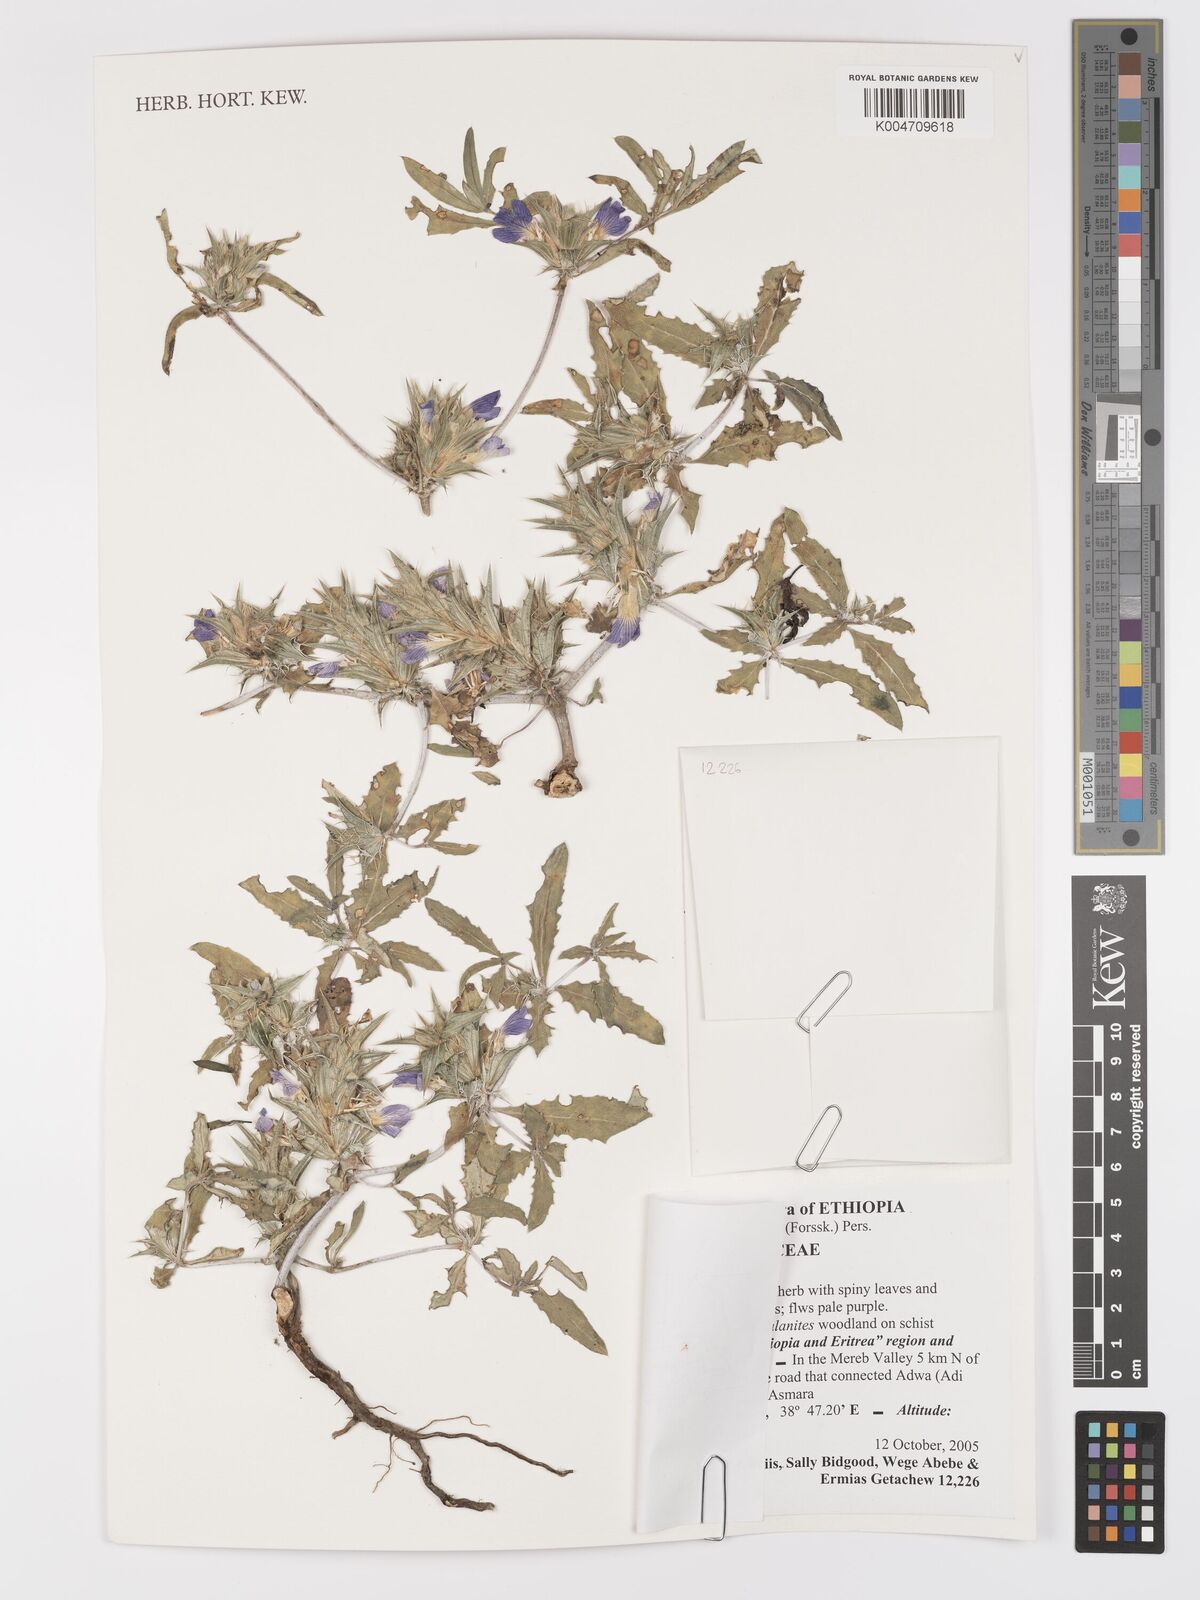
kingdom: Plantae
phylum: Tracheophyta
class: Magnoliopsida
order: Lamiales
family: Acanthaceae
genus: Blepharis
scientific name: Blepharis edulis
